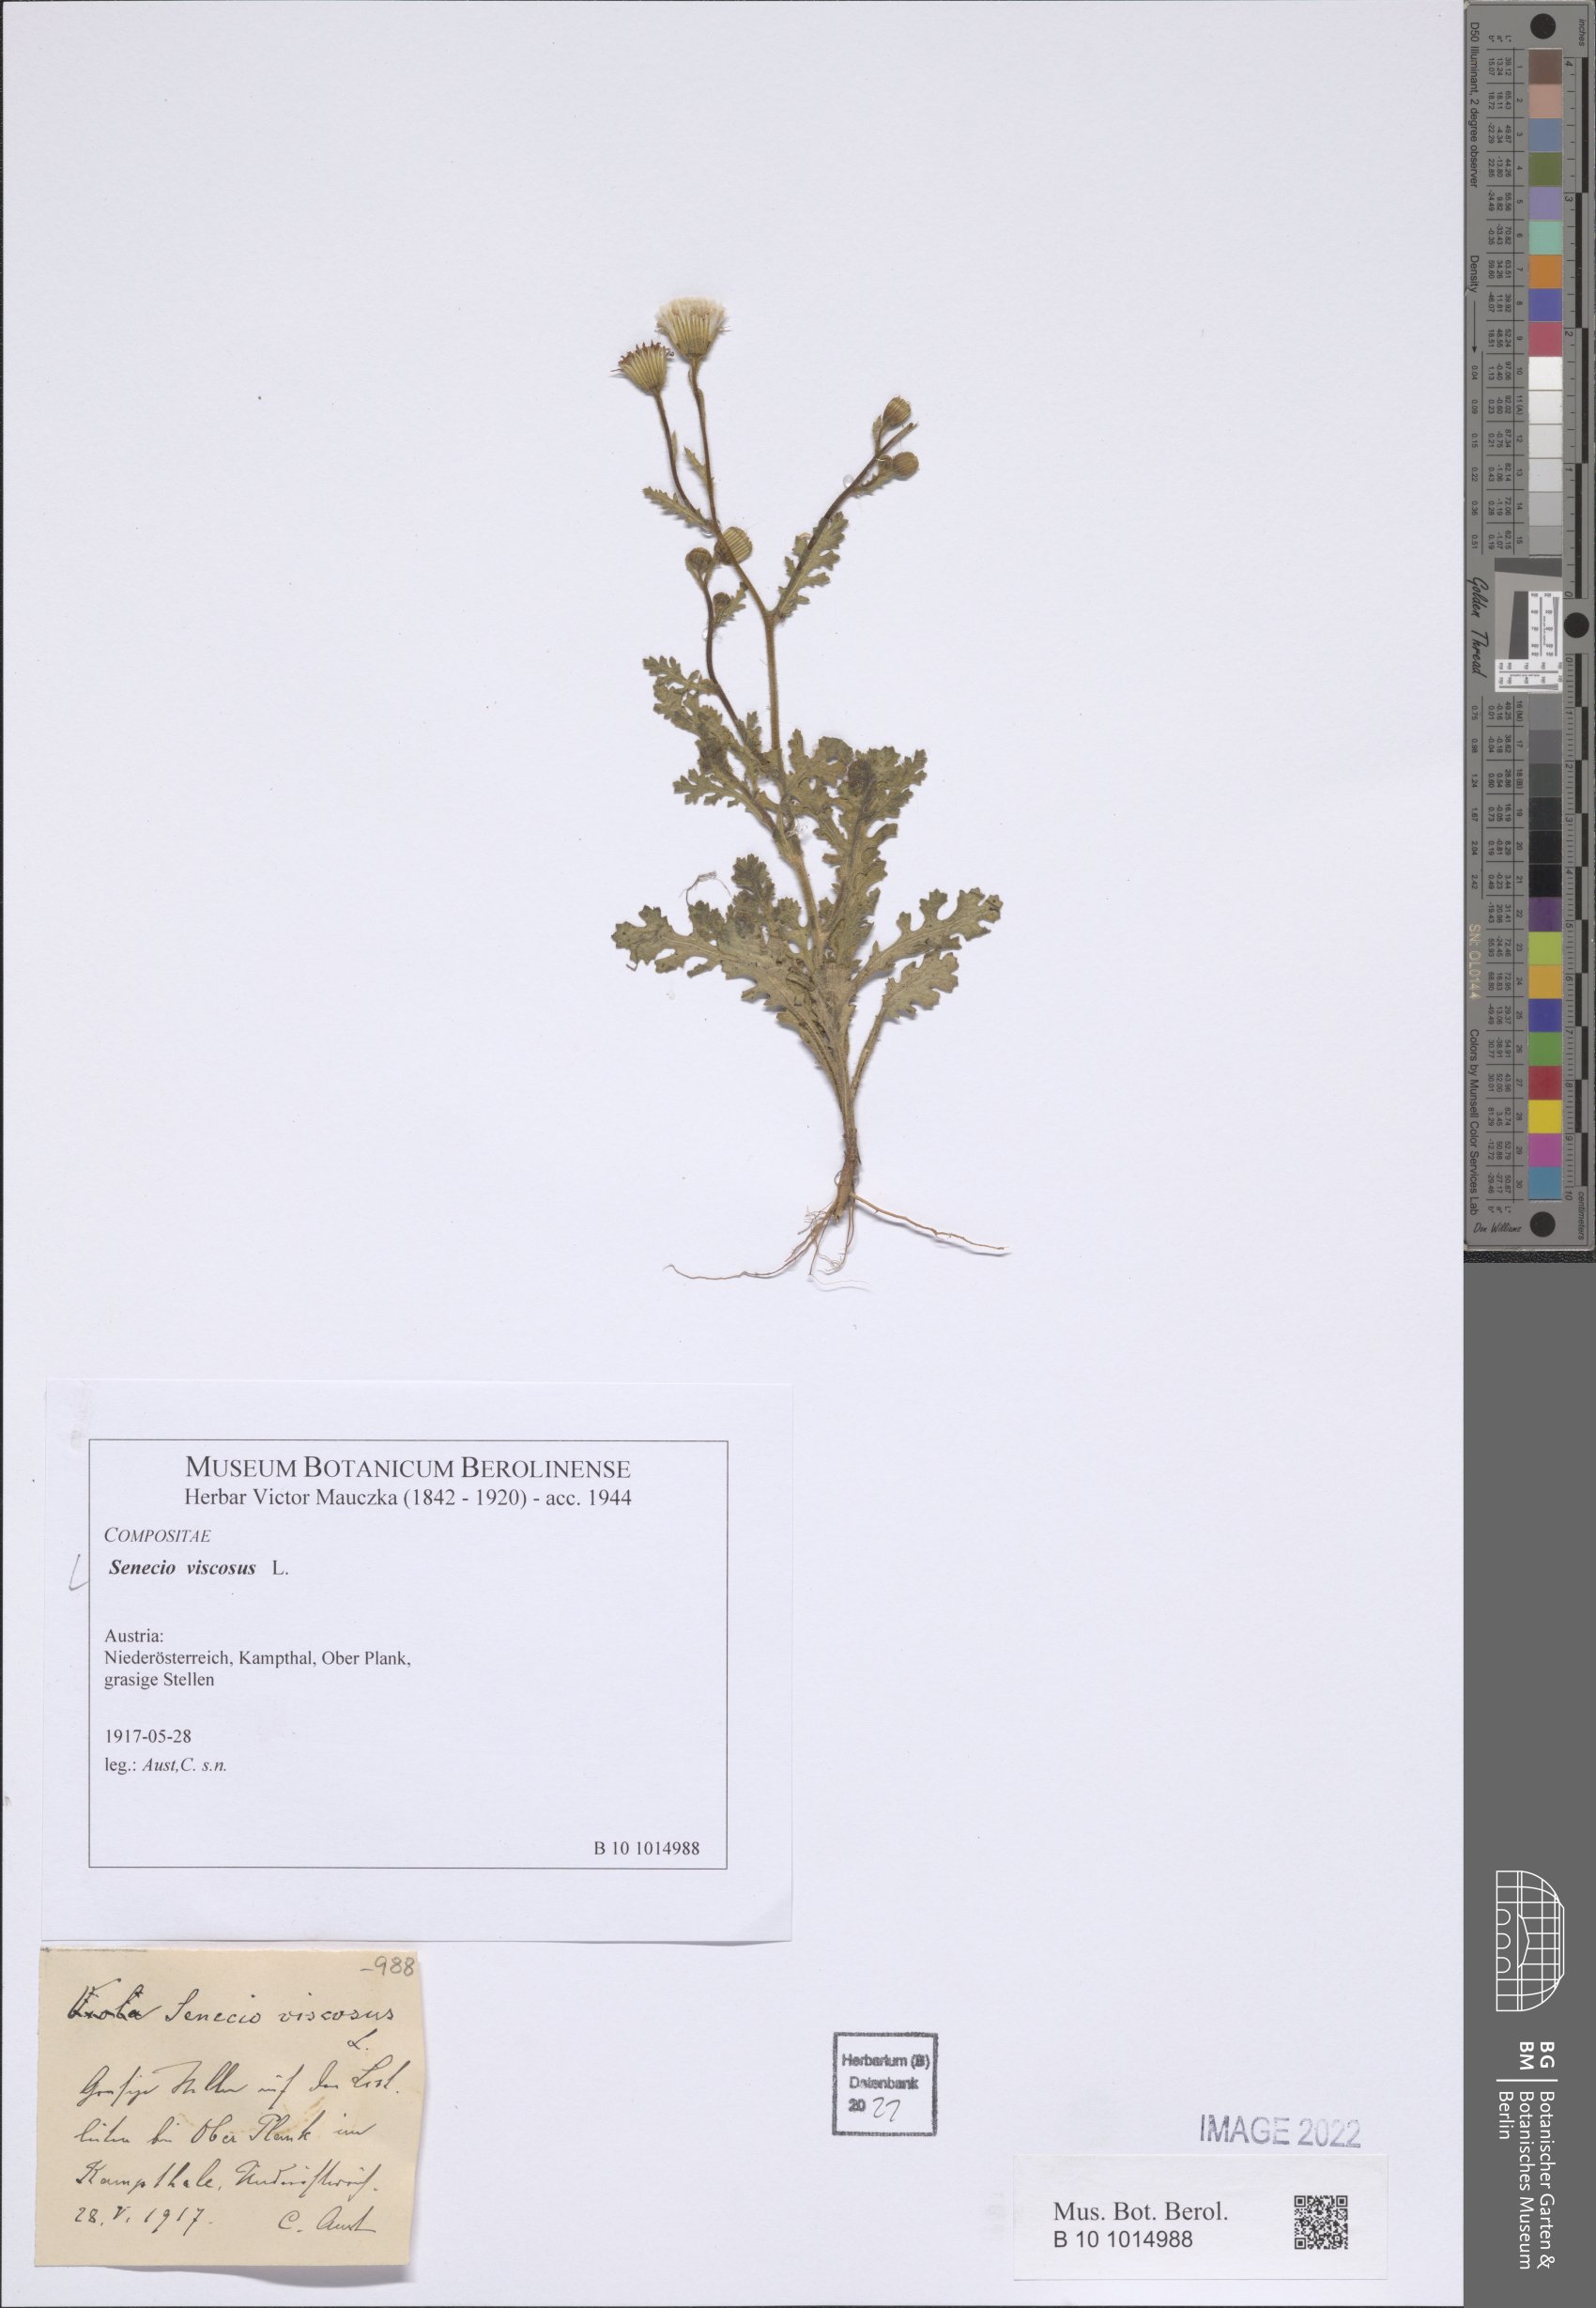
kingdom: Plantae
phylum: Tracheophyta
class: Magnoliopsida
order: Asterales
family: Asteraceae
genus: Senecio
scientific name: Senecio viscosus
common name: Sticky groundsel
